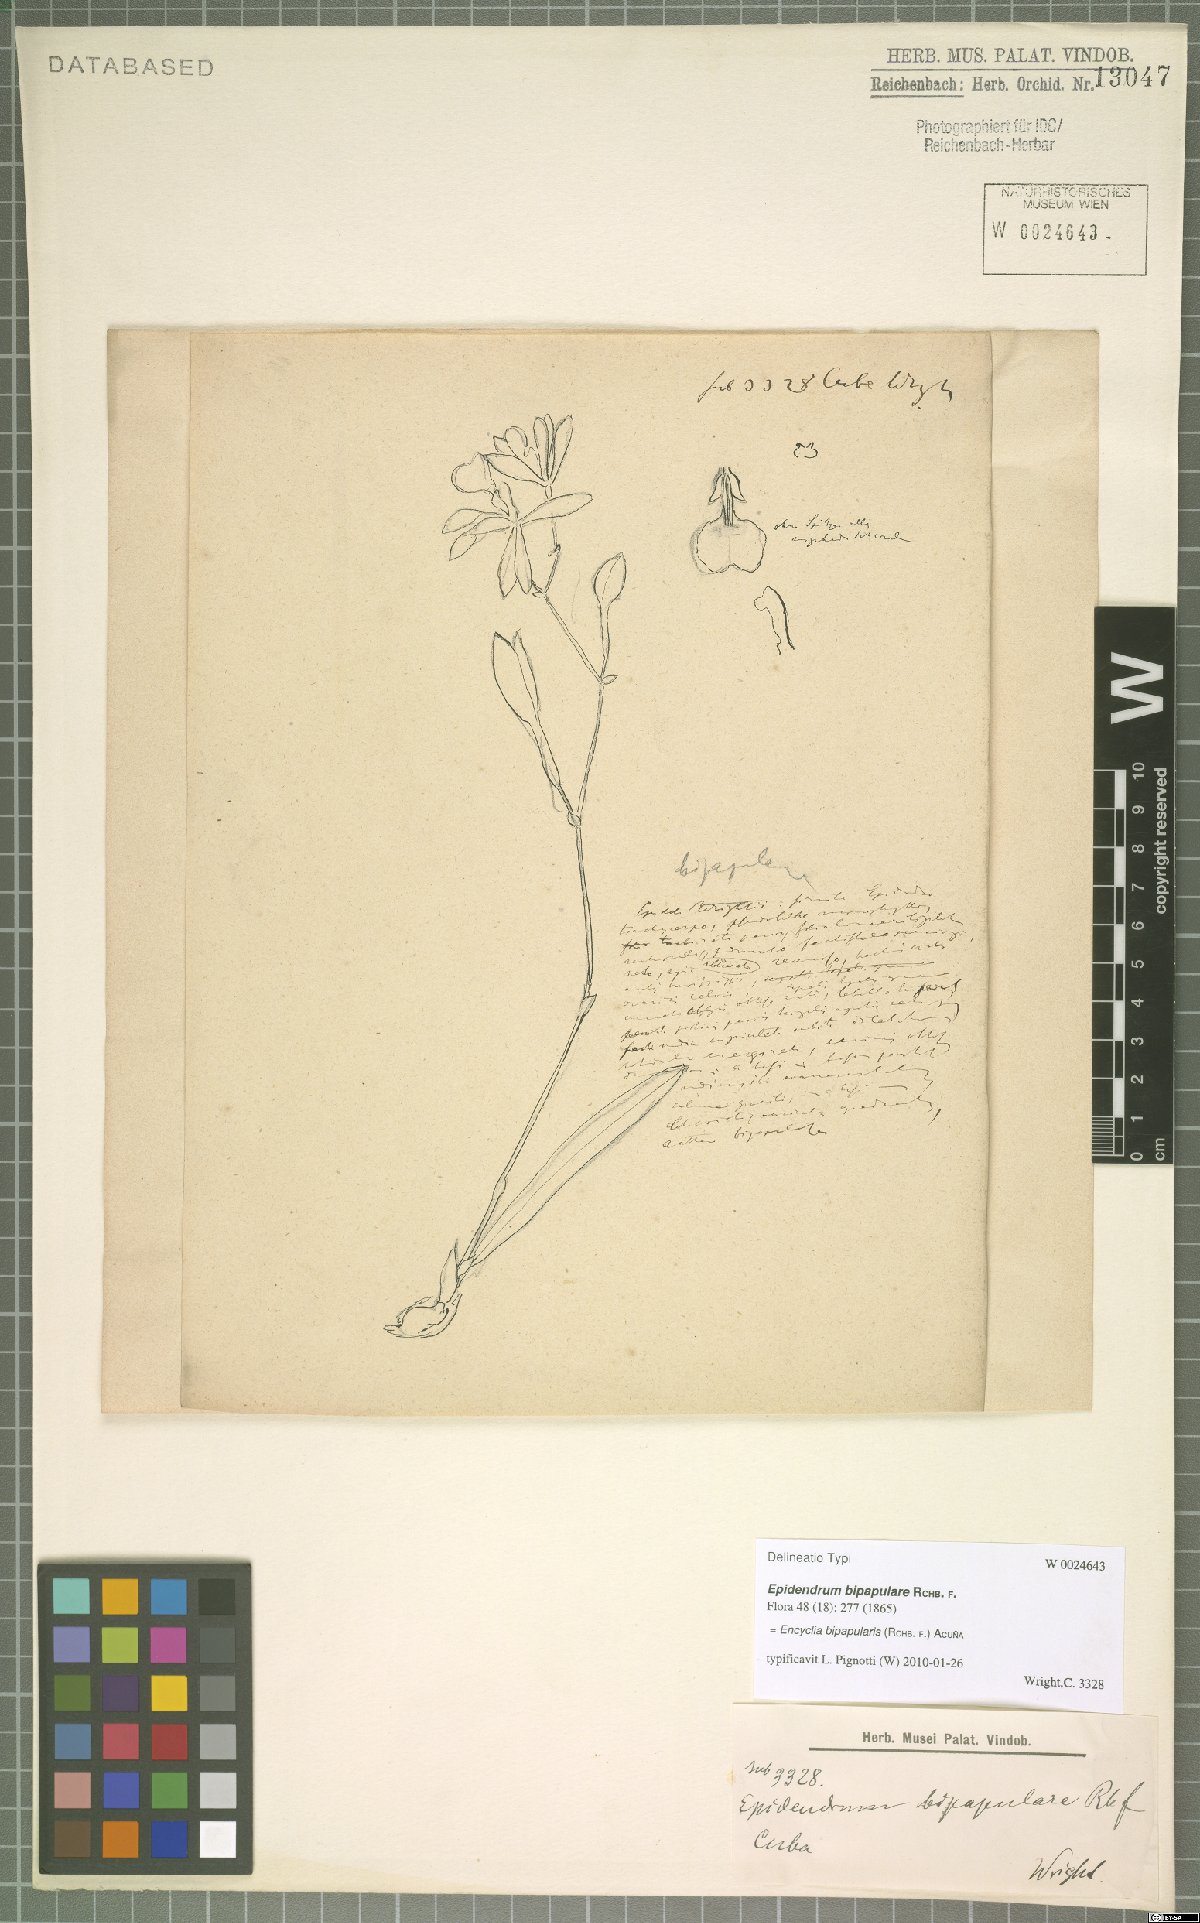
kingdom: Plantae
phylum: Tracheophyta
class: Liliopsida
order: Asparagales
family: Orchidaceae
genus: Encyclia
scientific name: Encyclia bipapularis
